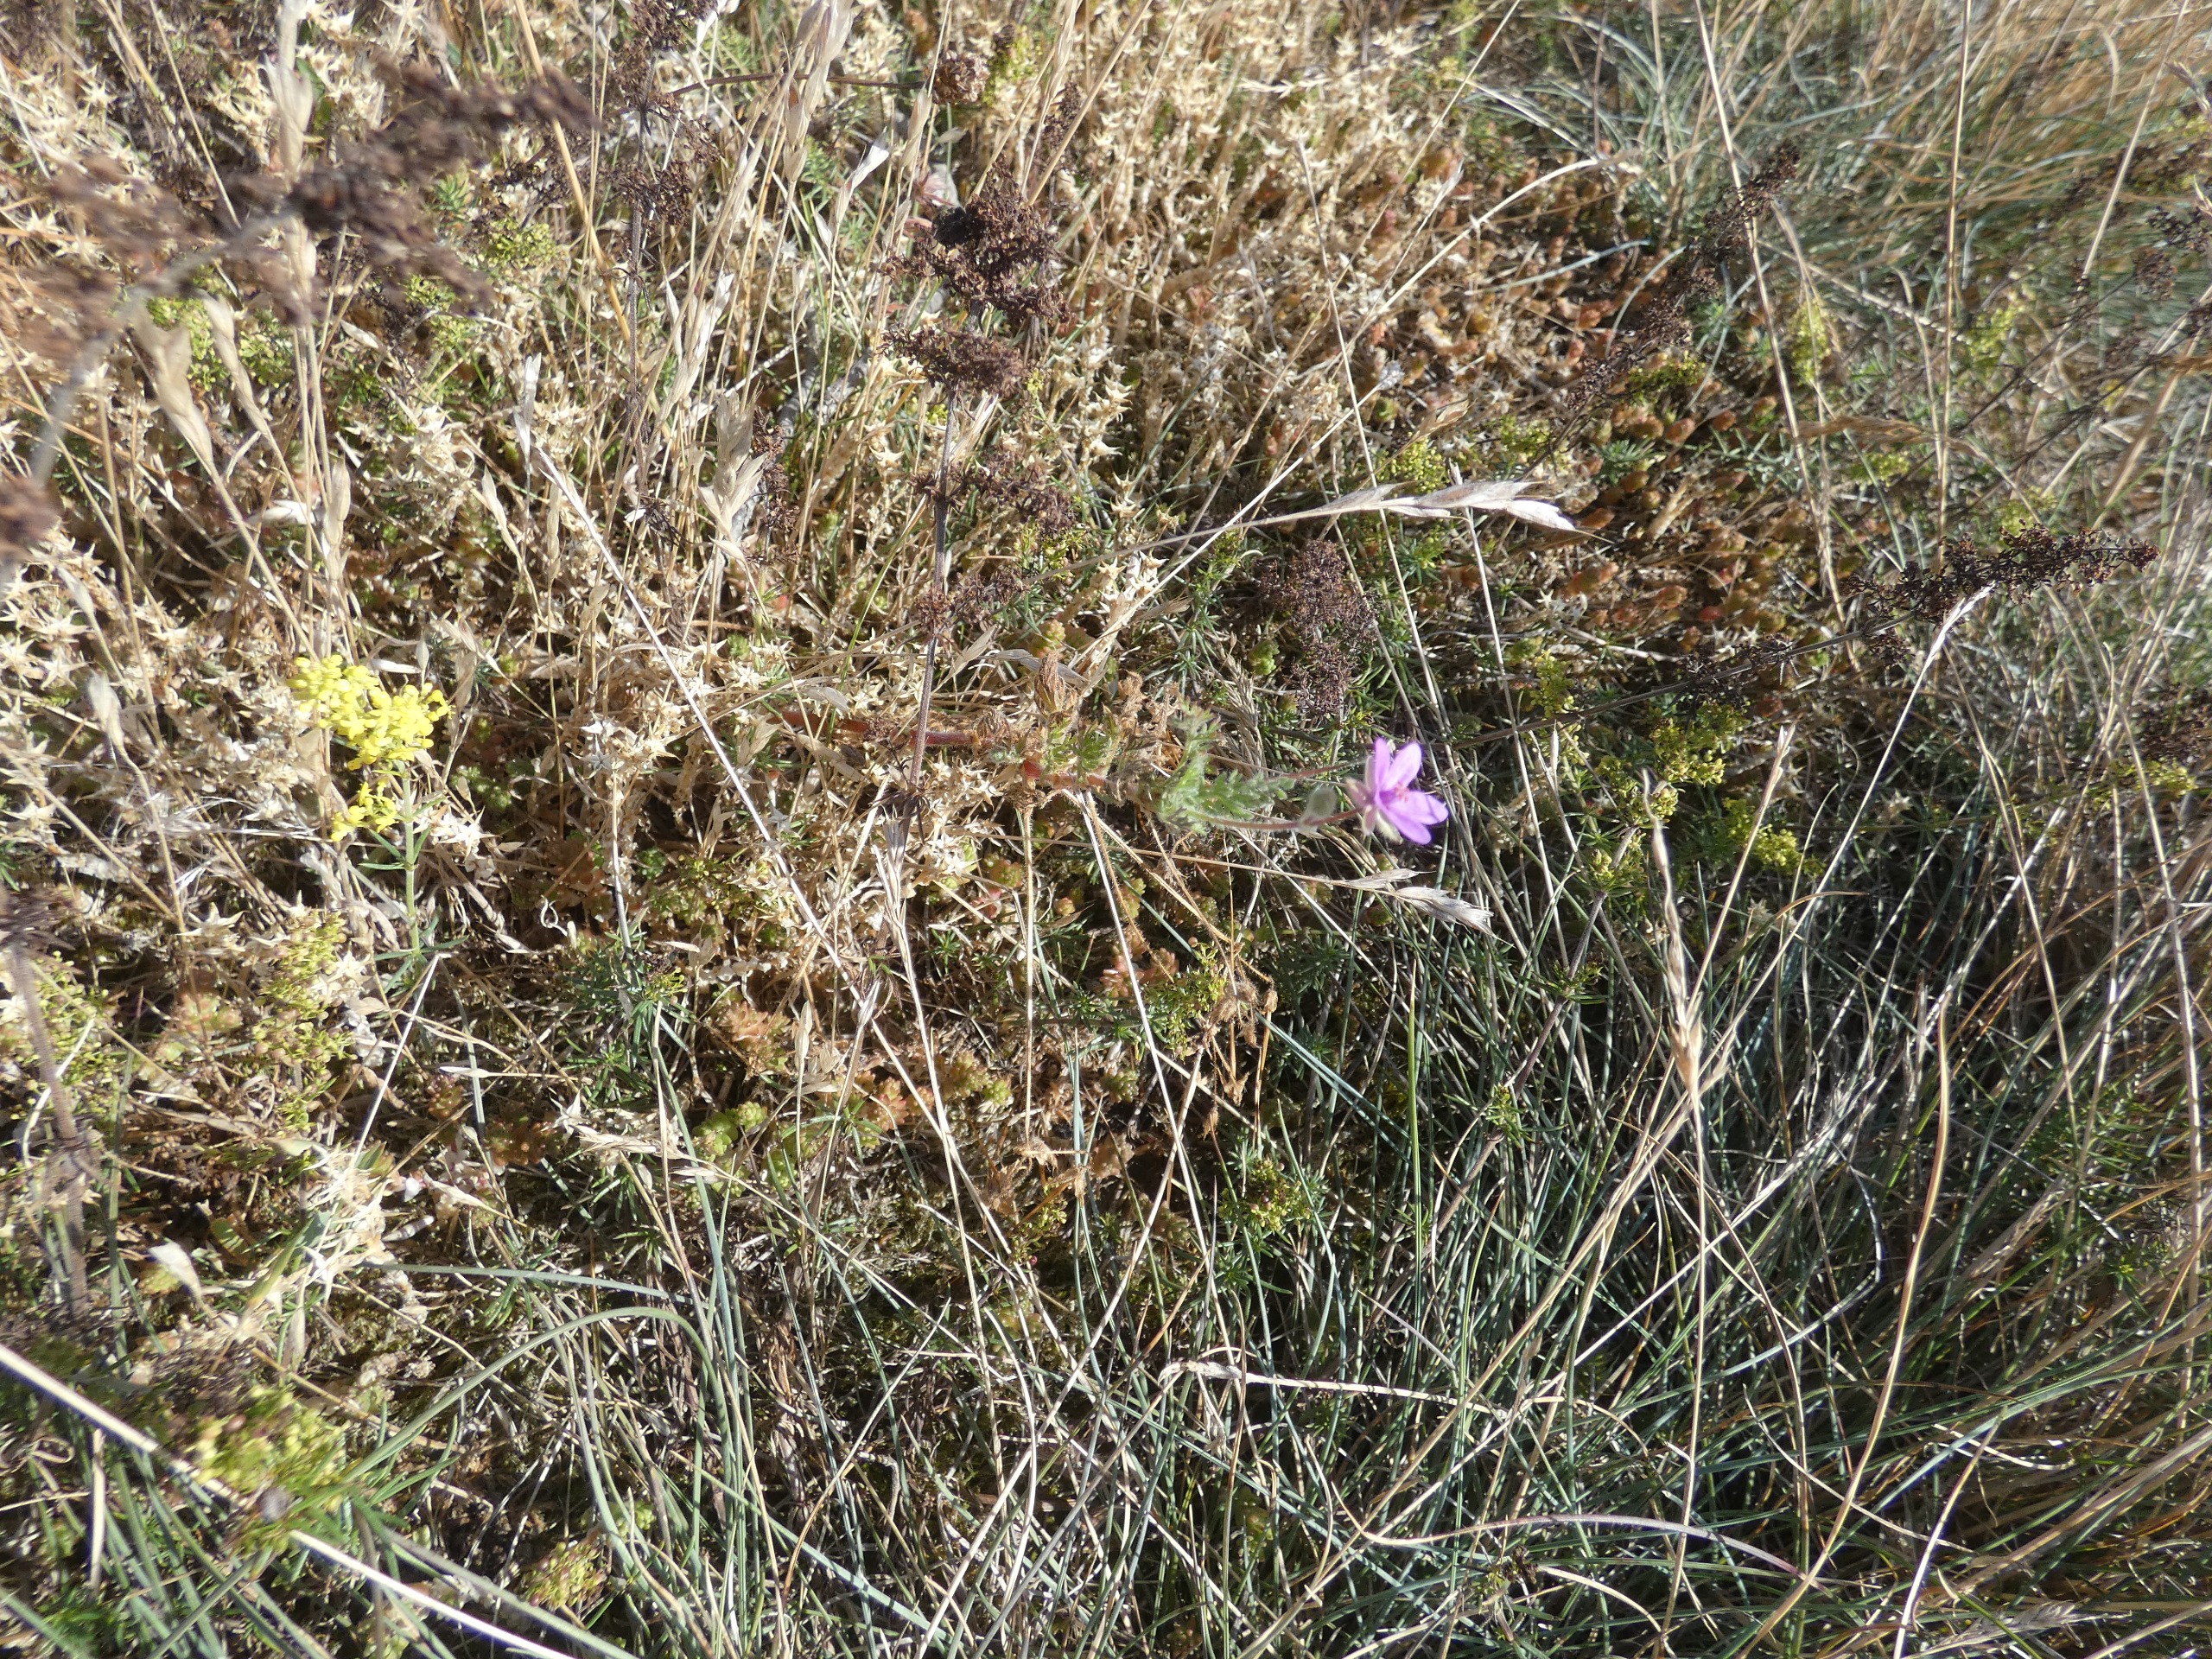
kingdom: Plantae
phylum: Tracheophyta
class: Magnoliopsida
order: Geraniales
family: Geraniaceae
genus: Erodium
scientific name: Erodium cicutarium
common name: Hejrenæb
